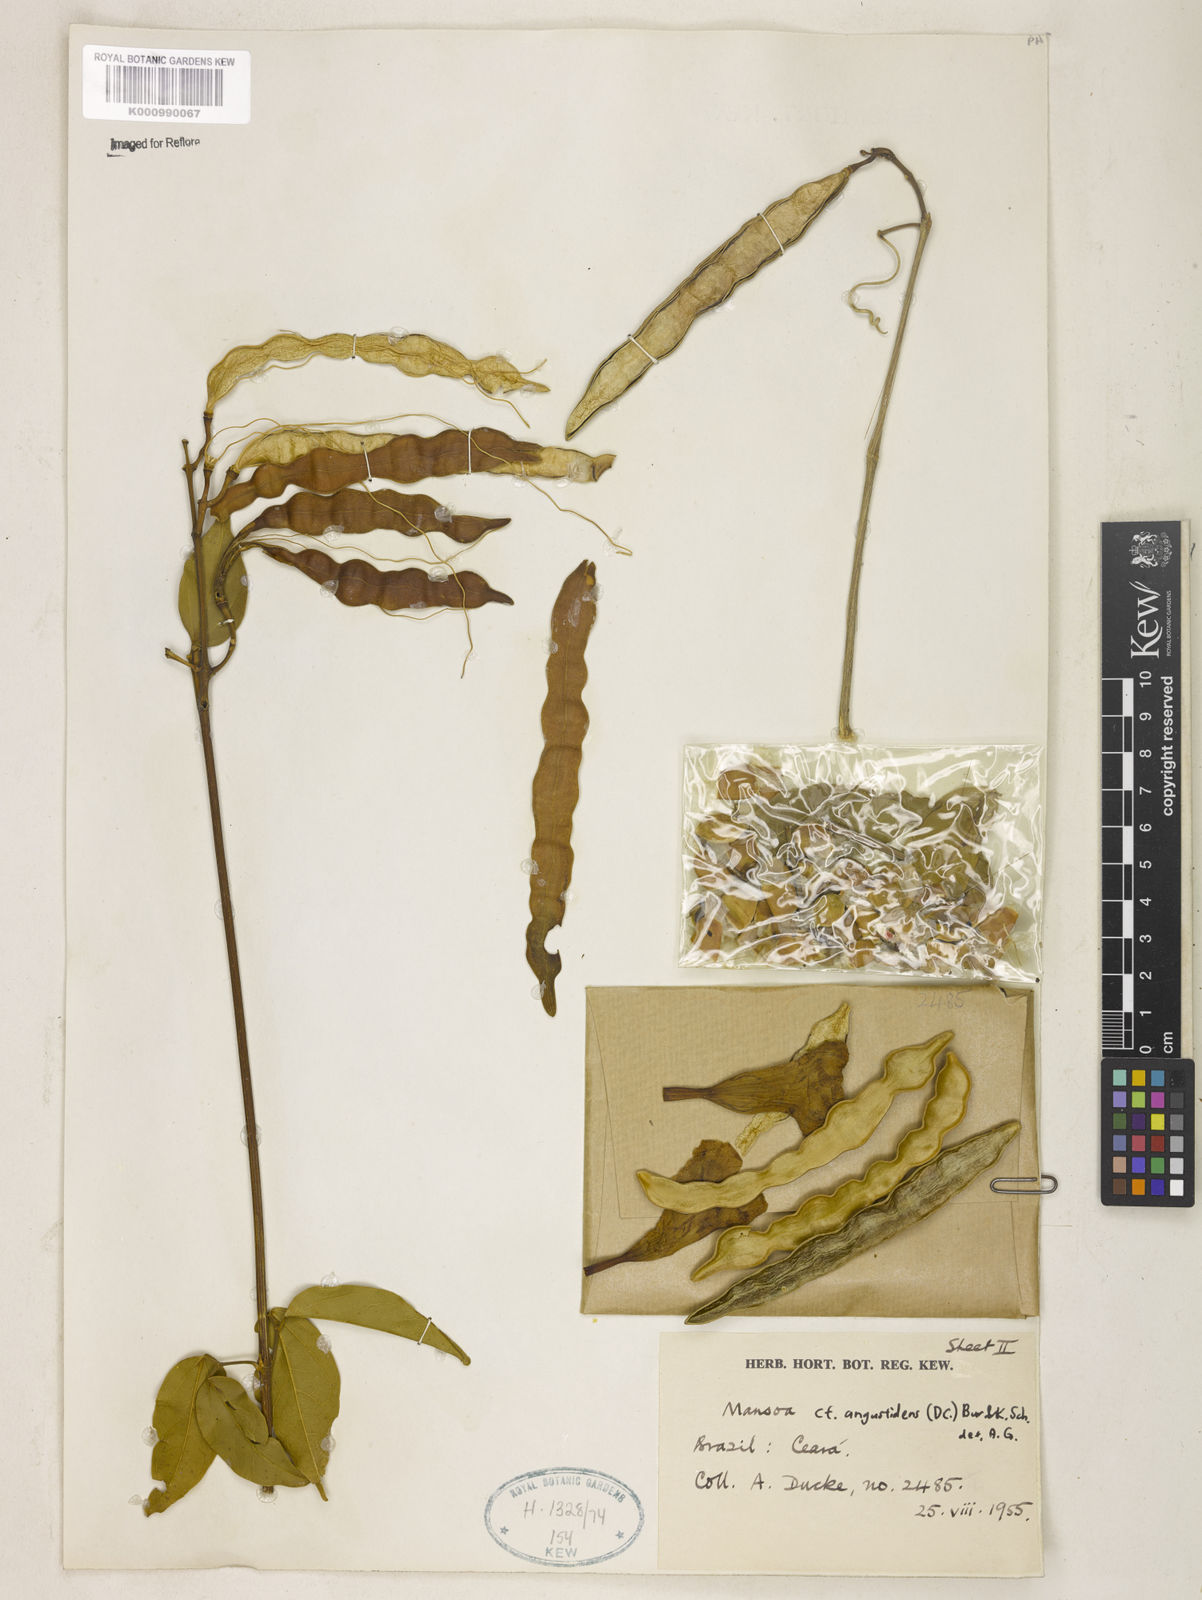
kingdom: Plantae
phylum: Tracheophyta
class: Magnoliopsida
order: Solanales
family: Solanaceae
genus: Solanum
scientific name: Solanum schlechtendalianum
